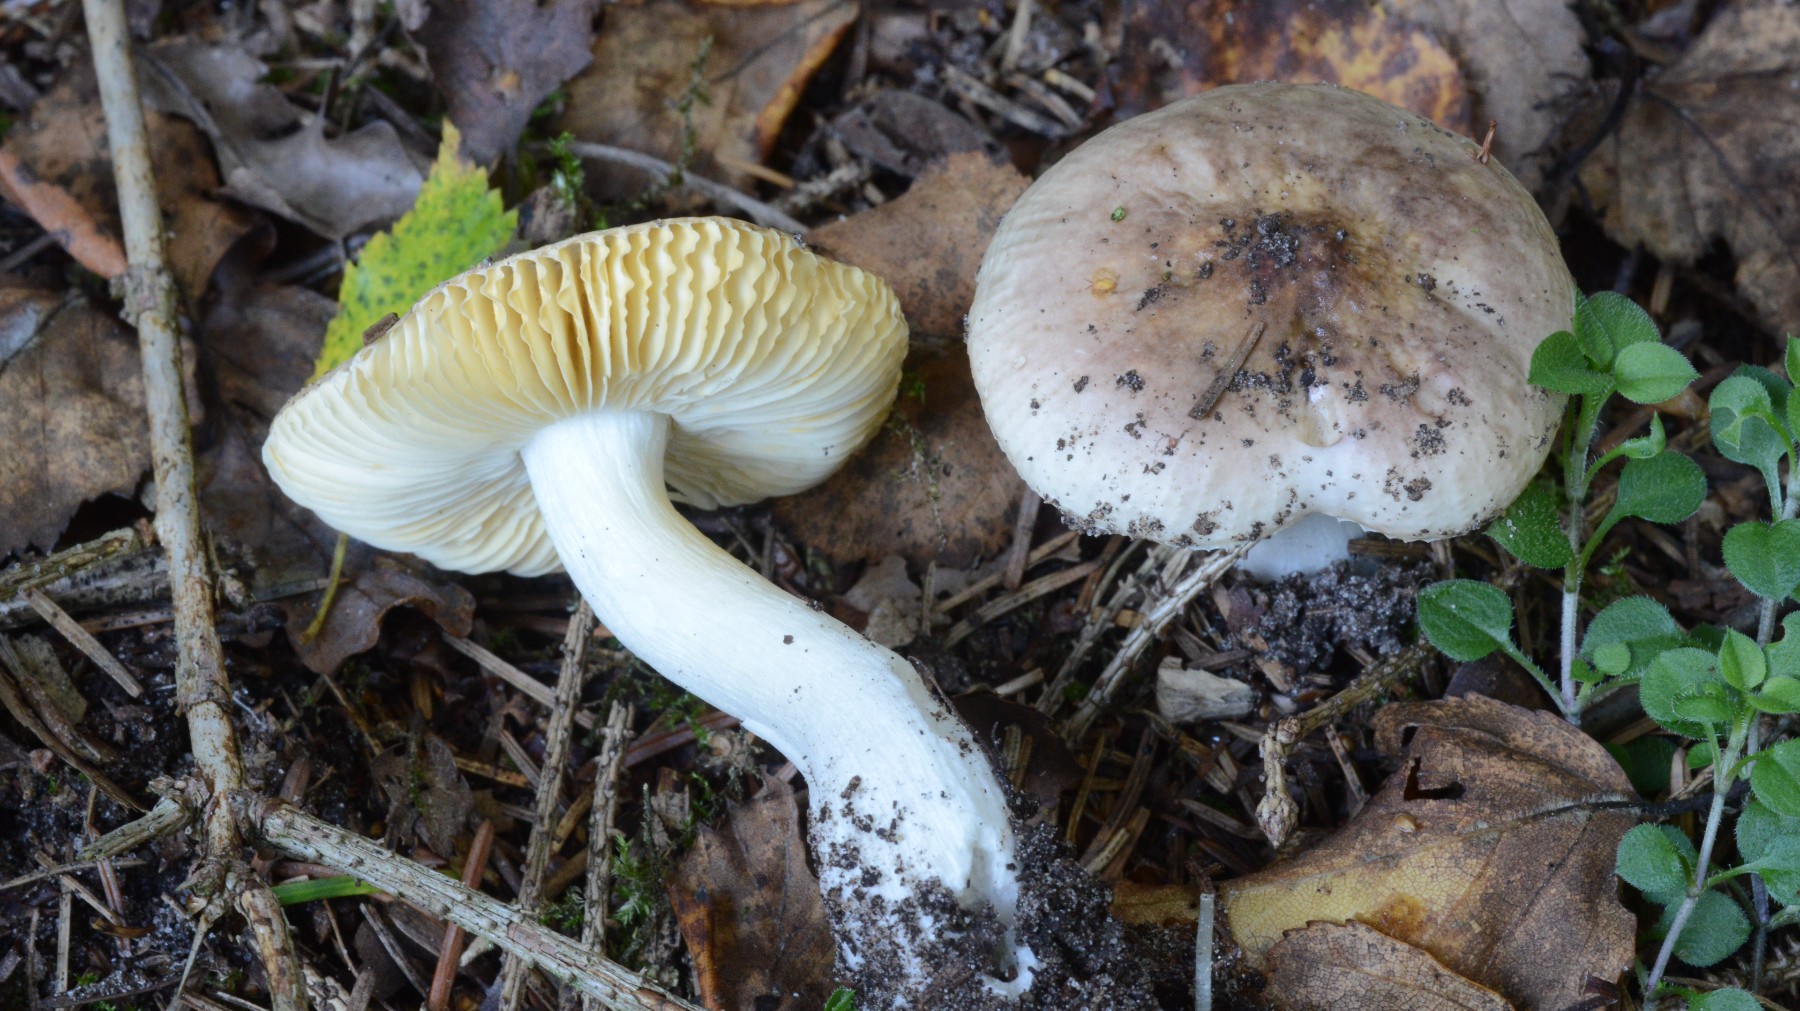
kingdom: Fungi
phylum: Basidiomycota
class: Agaricomycetes
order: Russulales
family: Russulaceae
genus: Russula
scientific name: Russula nauseosa
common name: spinkel skørhat
